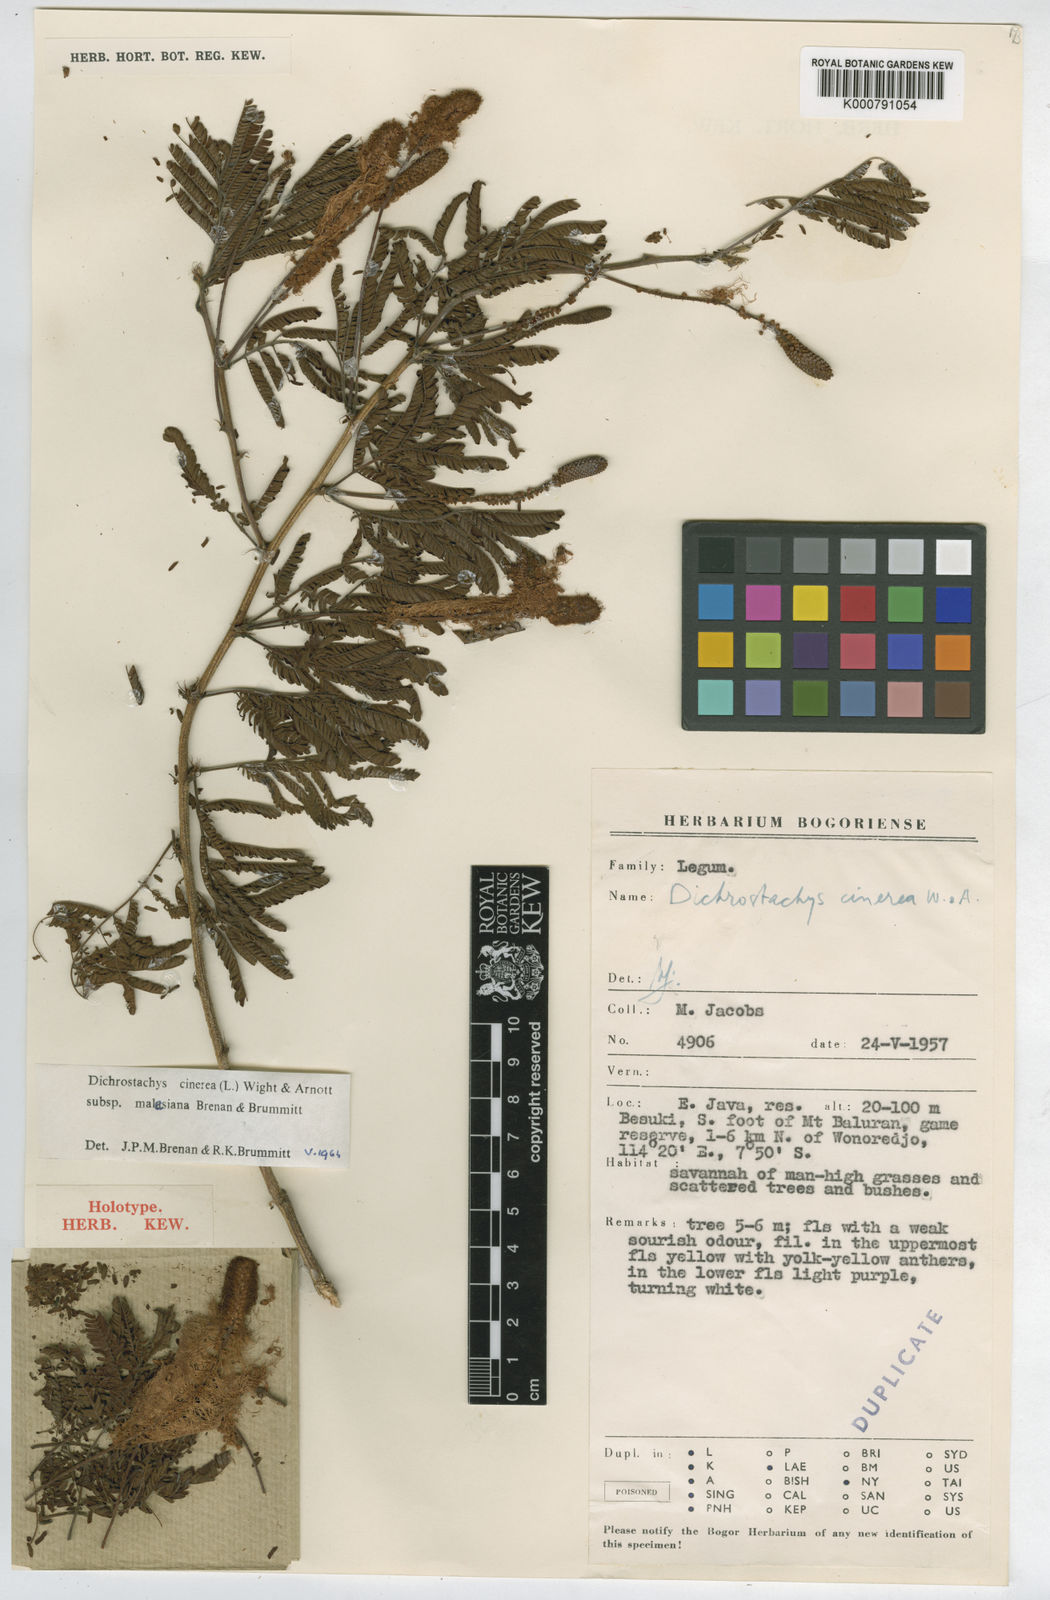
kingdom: Plantae
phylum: Tracheophyta
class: Magnoliopsida
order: Fabales
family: Fabaceae
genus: Dichrostachys
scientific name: Dichrostachys cinerea
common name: Sicklebush
